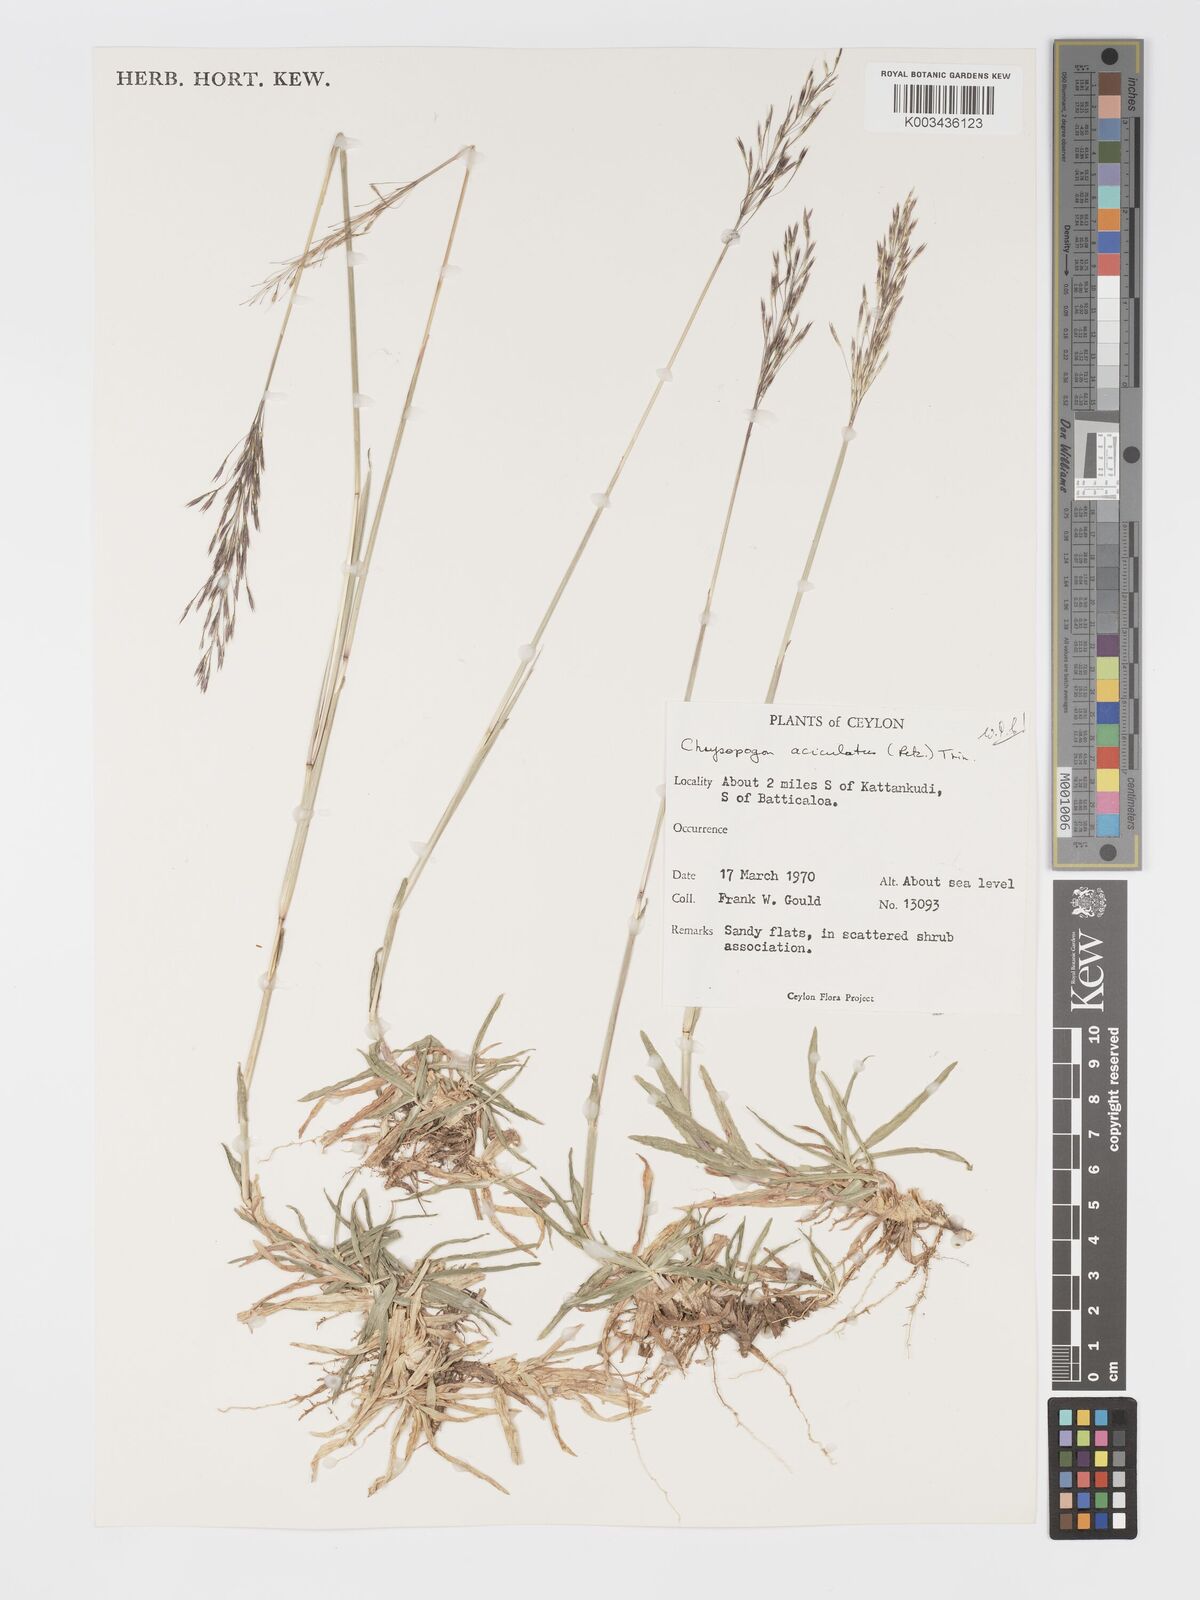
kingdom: Plantae
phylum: Tracheophyta
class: Liliopsida
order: Poales
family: Poaceae
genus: Chrysopogon
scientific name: Chrysopogon aciculatus
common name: Pilipiliula
